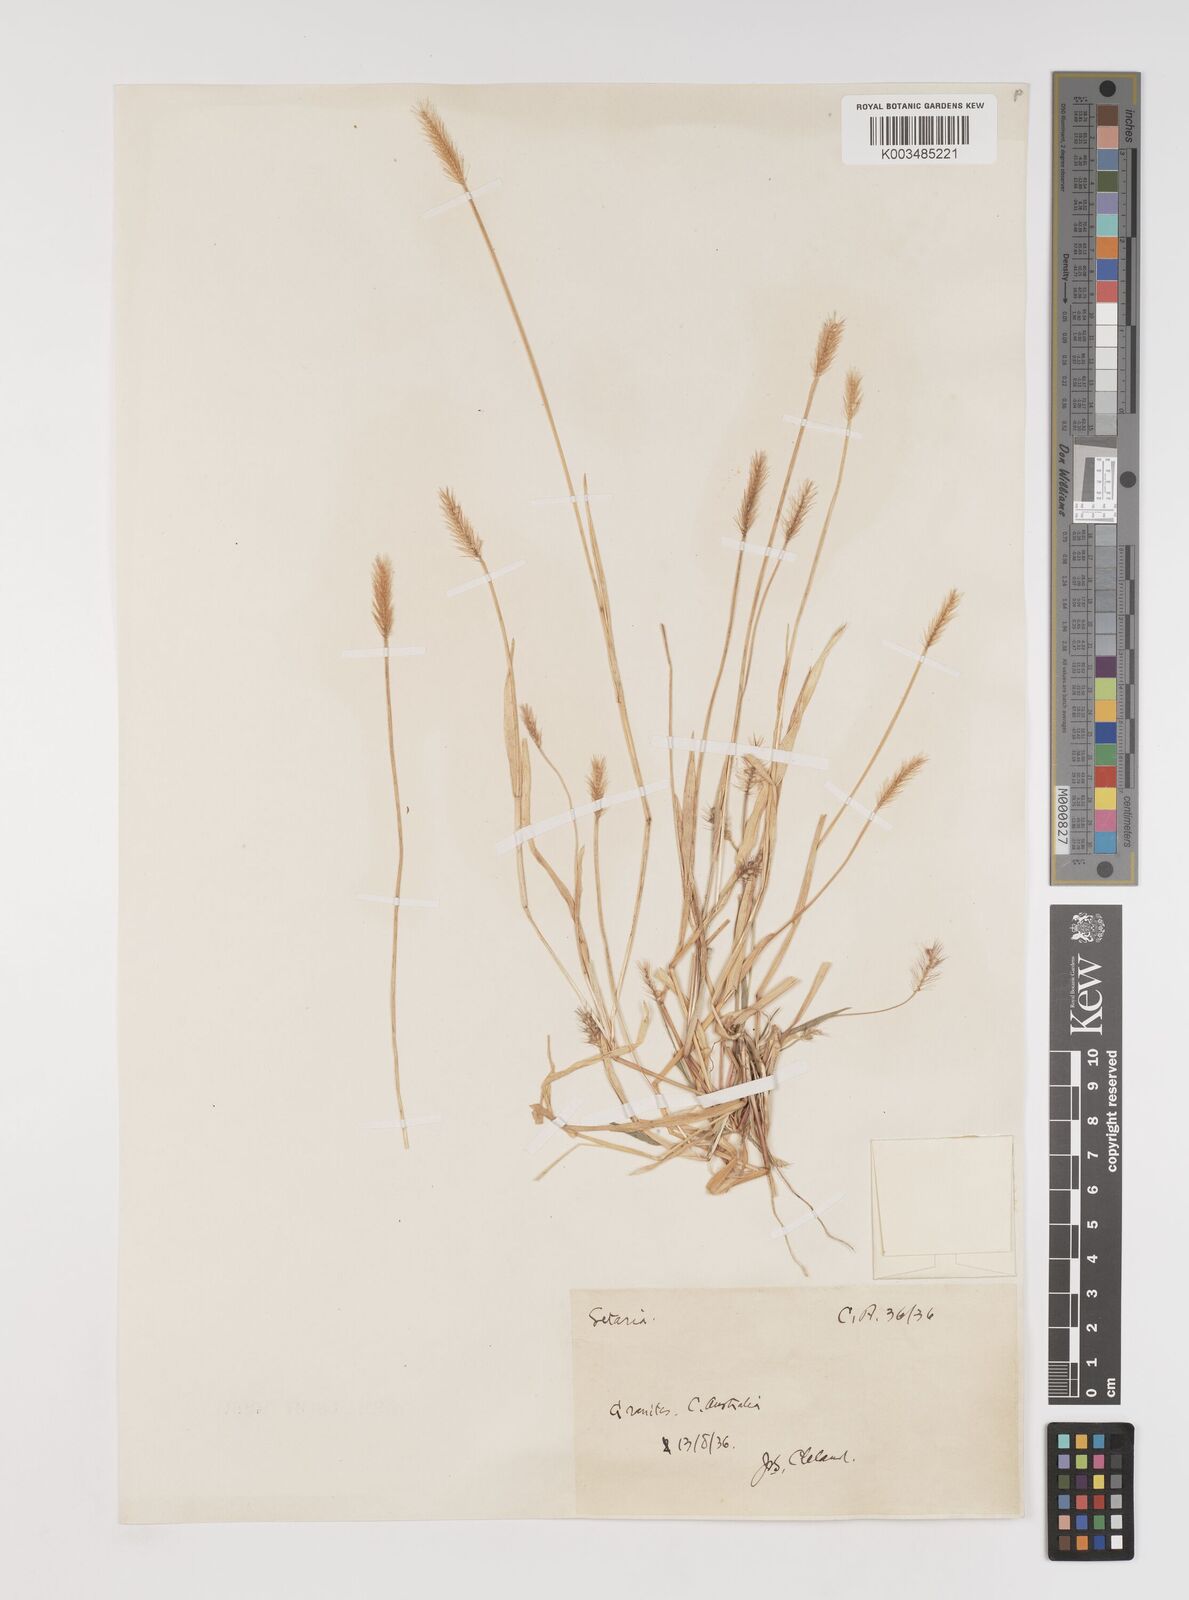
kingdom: Plantae
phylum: Tracheophyta
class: Liliopsida
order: Poales
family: Poaceae
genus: Setaria
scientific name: Setaria surgens
